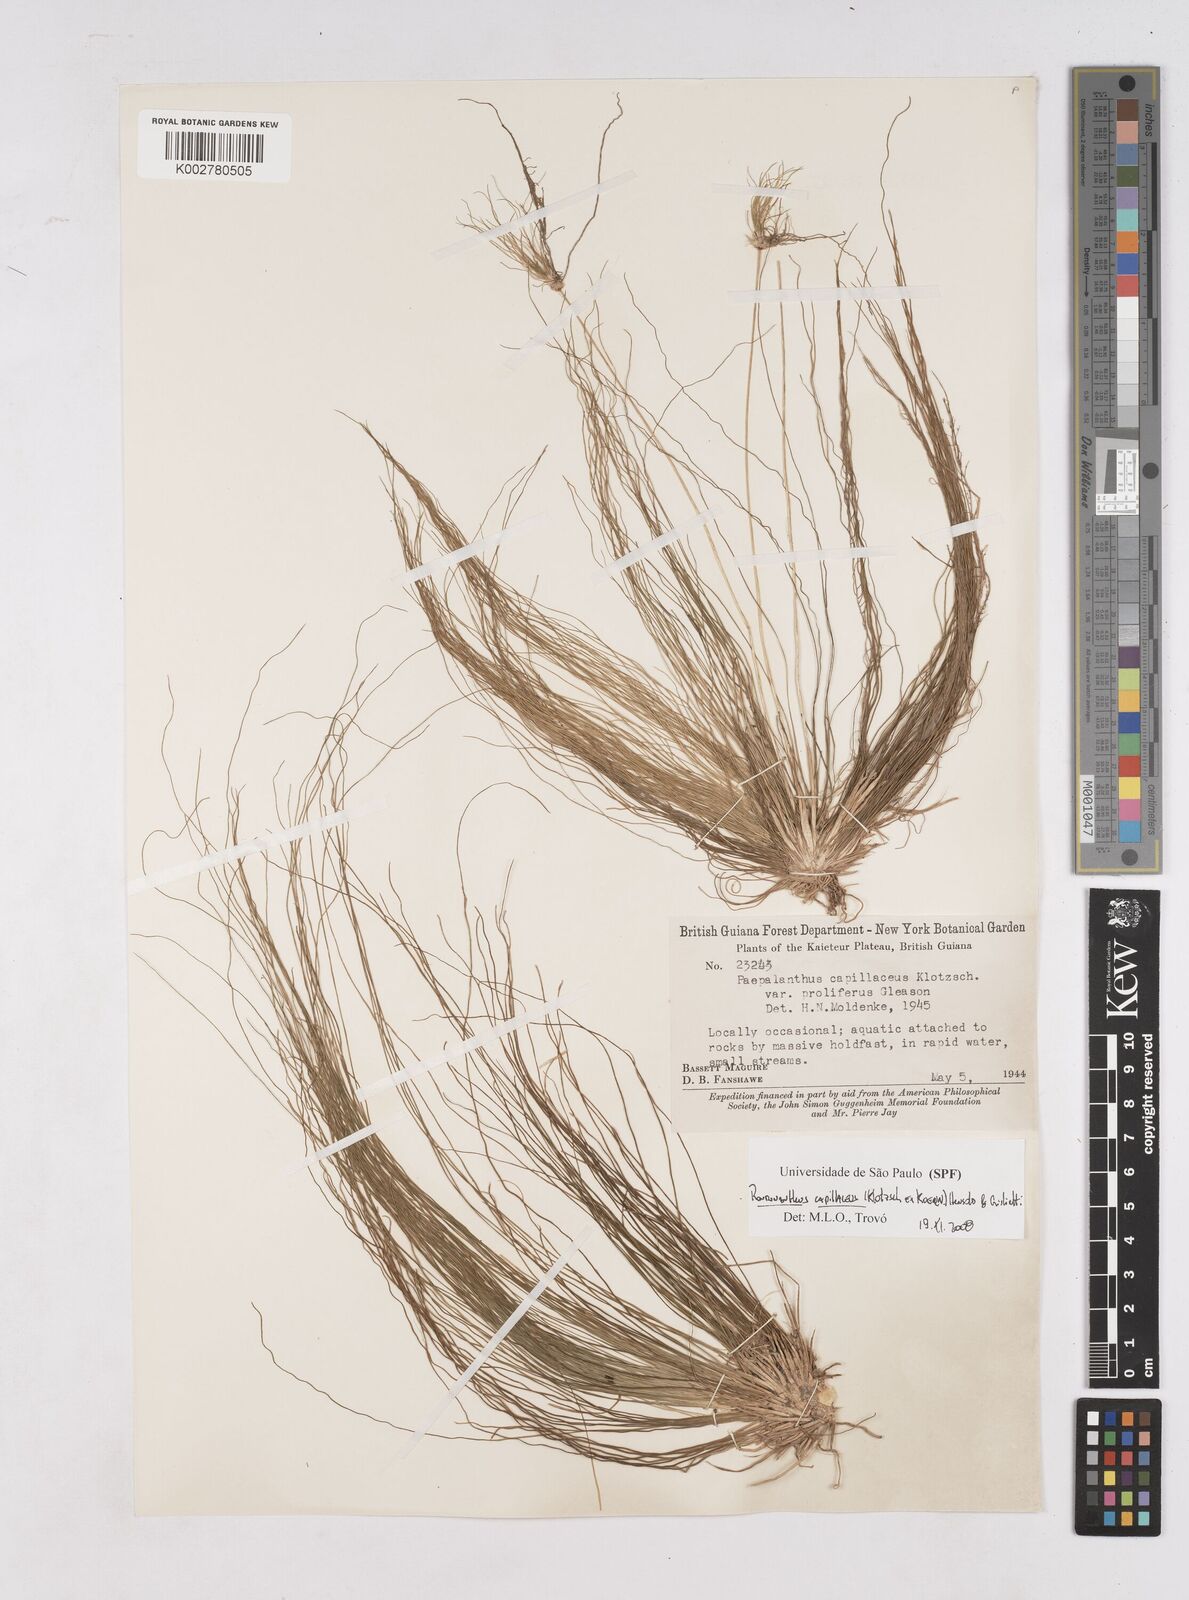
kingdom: Plantae
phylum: Tracheophyta
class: Liliopsida
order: Poales
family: Eriocaulaceae
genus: Rondonanthus
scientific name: Rondonanthus capillaceus
